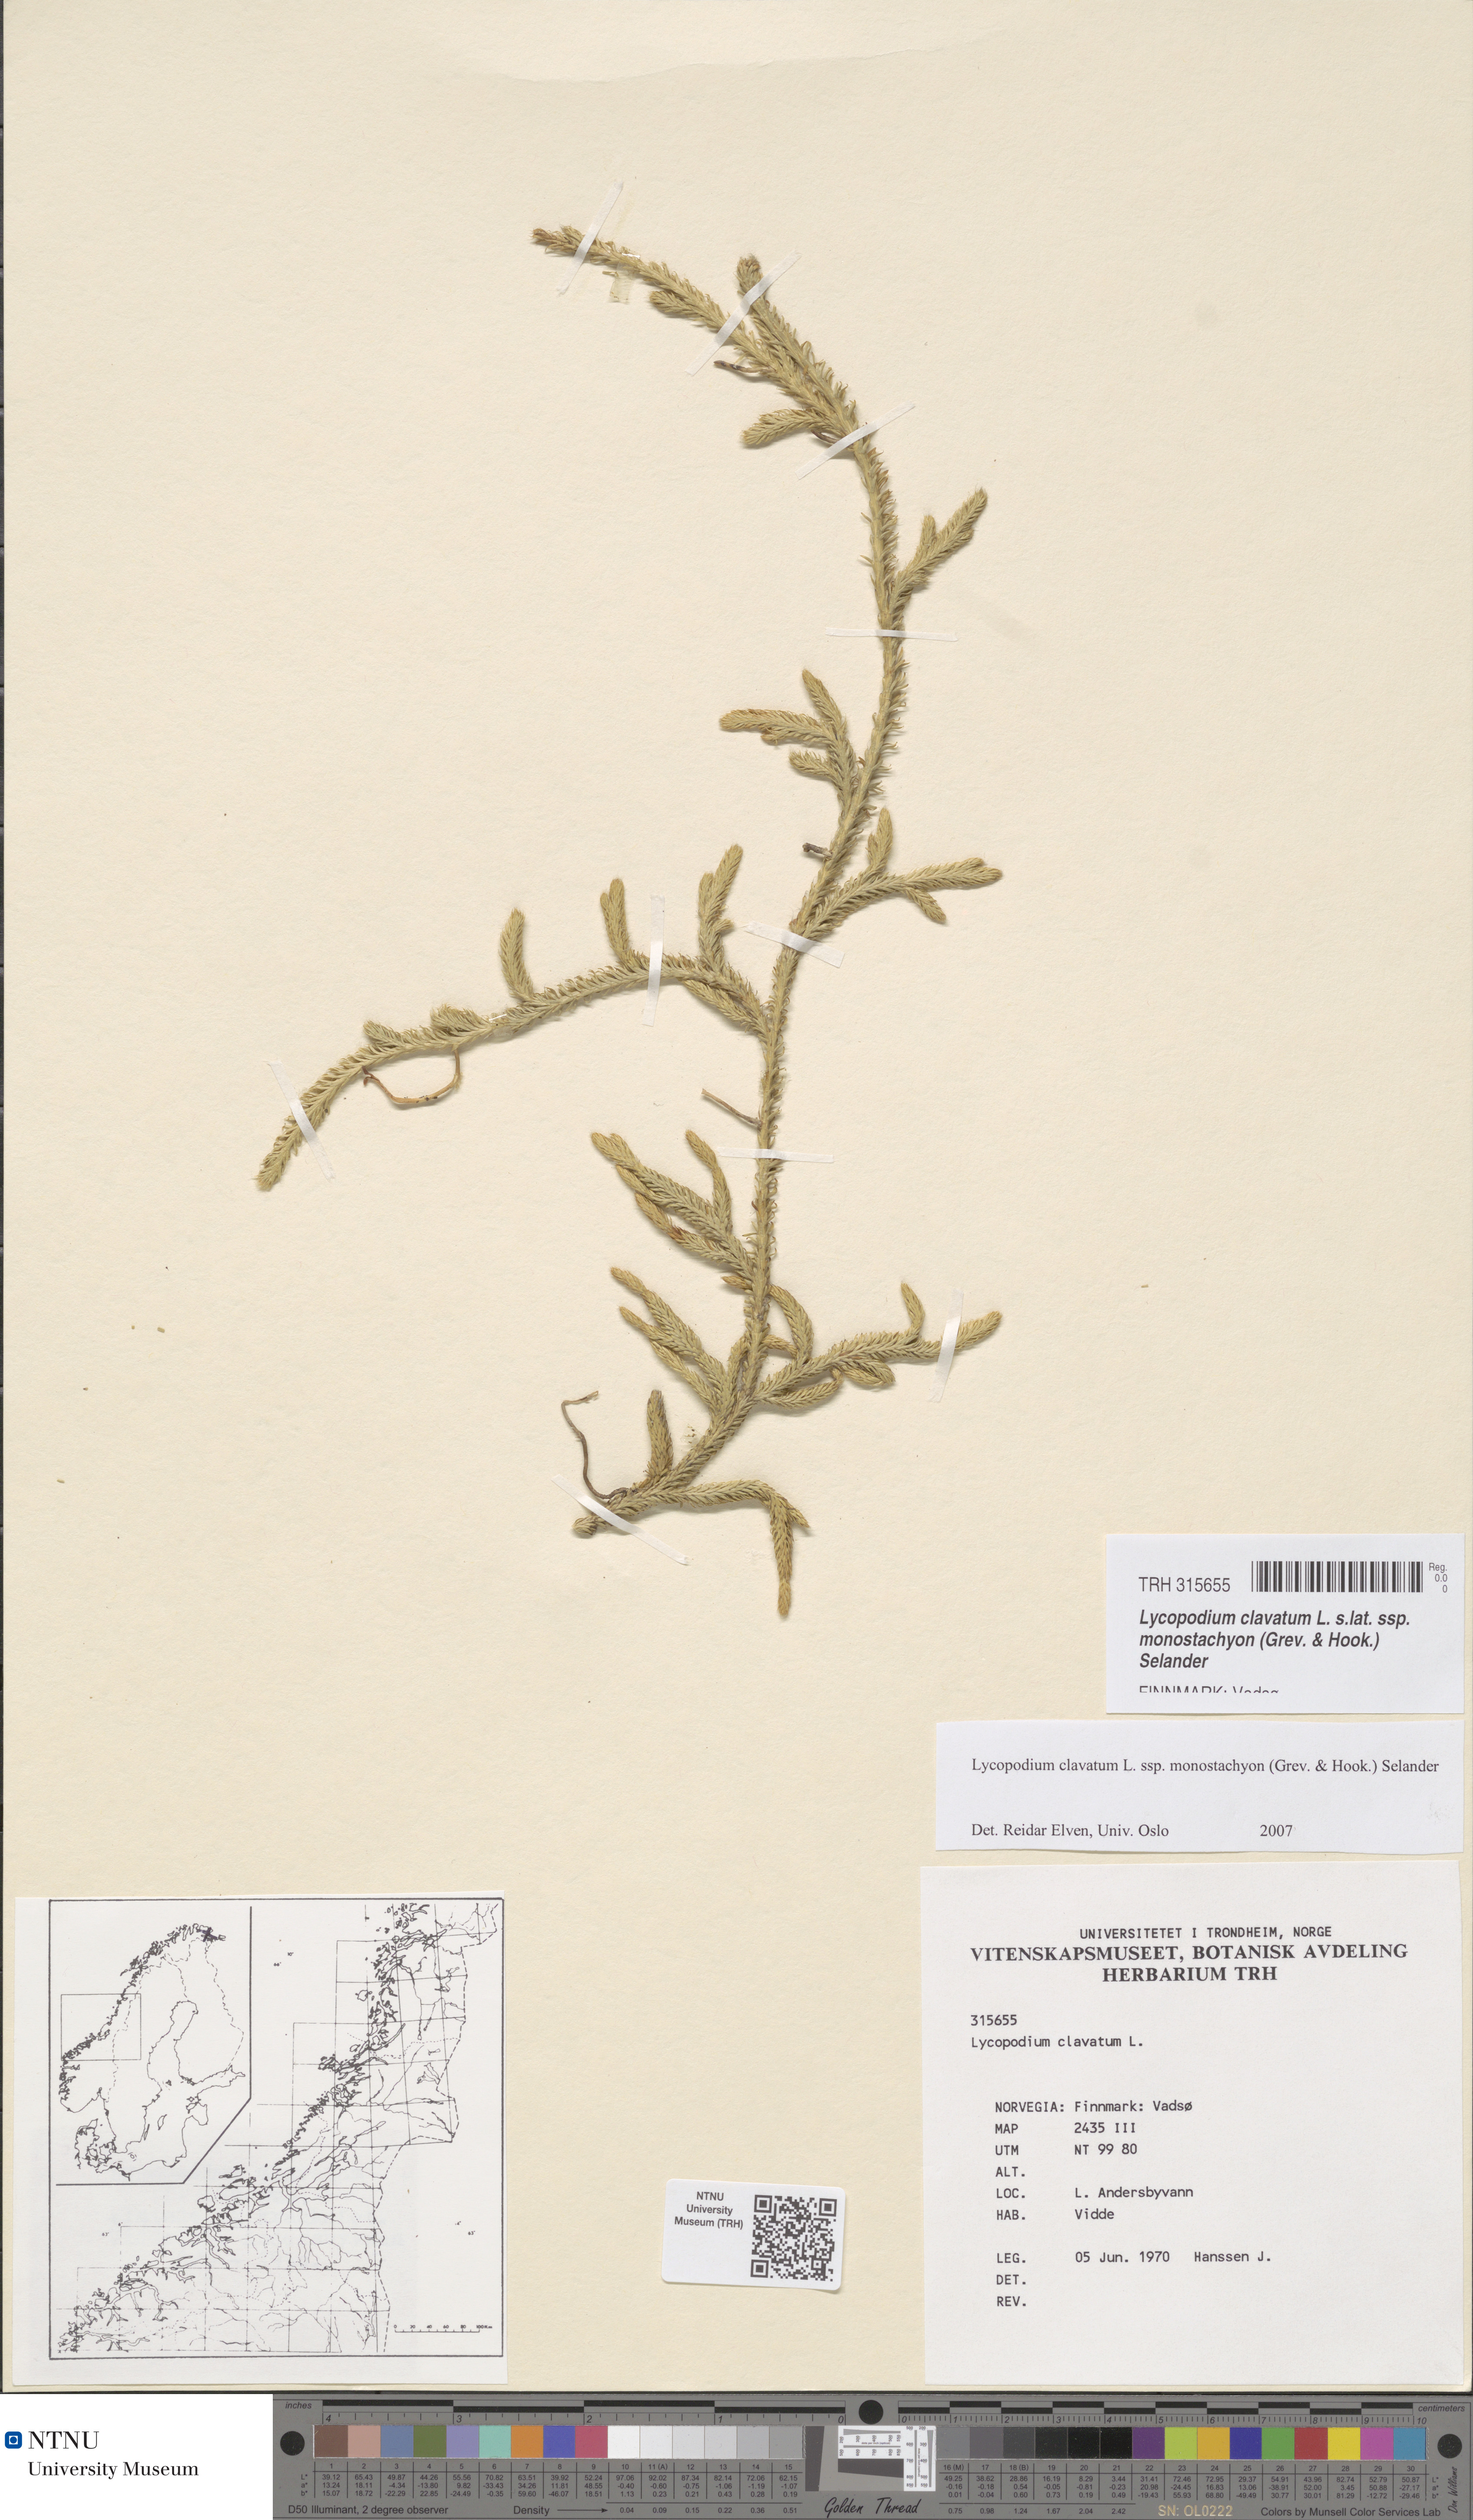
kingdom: Plantae
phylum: Tracheophyta
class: Lycopodiopsida
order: Lycopodiales
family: Lycopodiaceae
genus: Lycopodium
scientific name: Lycopodium lagopus
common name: One-cone clubmoss
